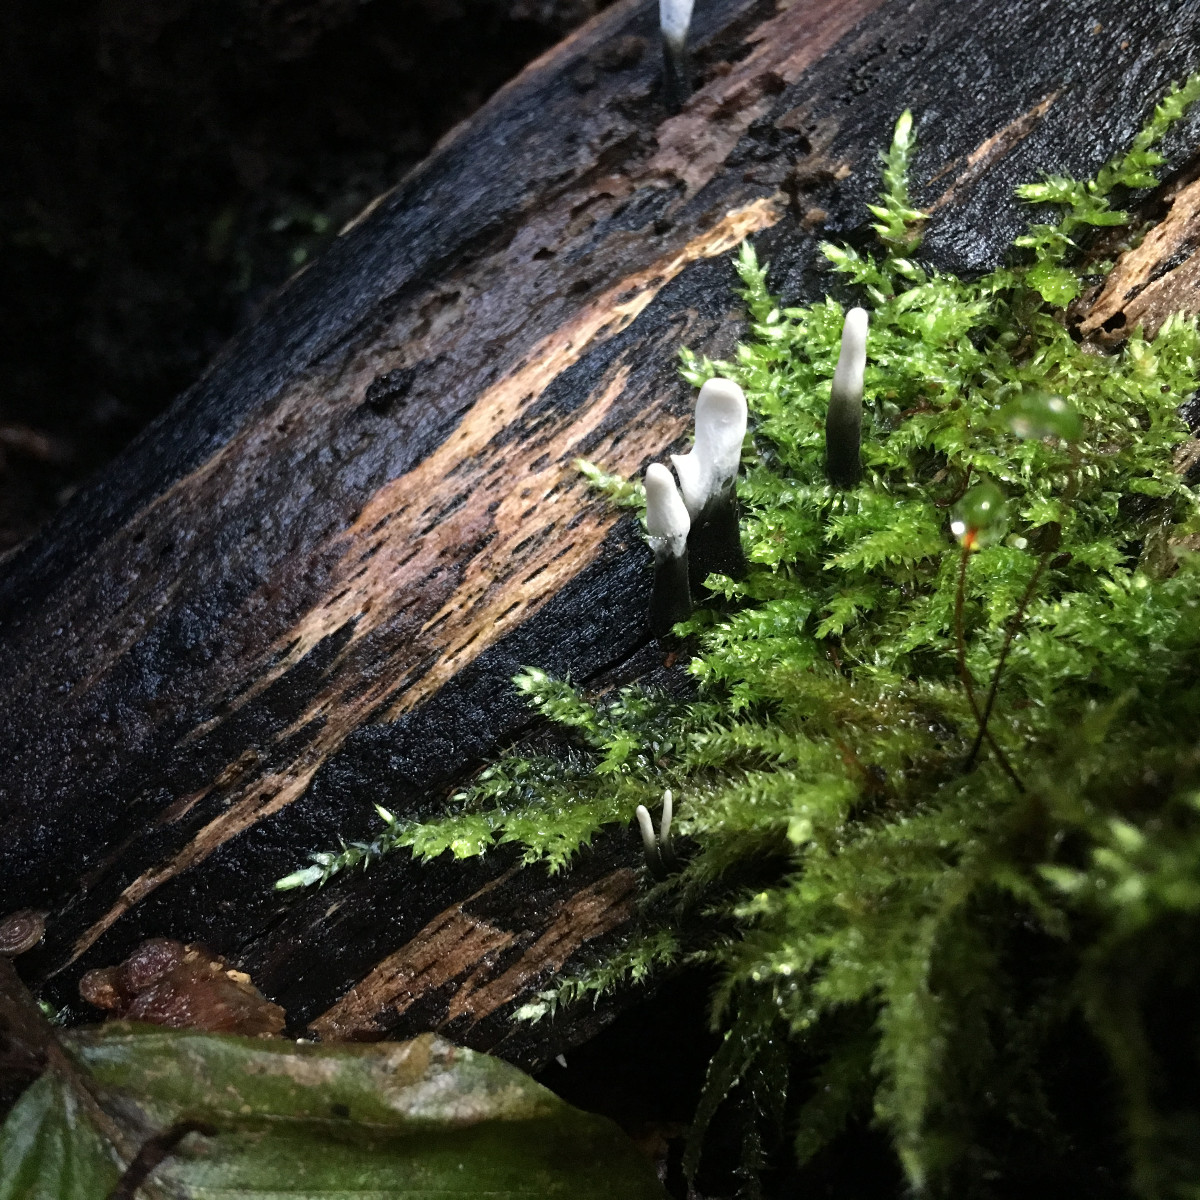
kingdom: Fungi
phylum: Ascomycota
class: Sordariomycetes
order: Xylariales
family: Xylariaceae
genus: Xylaria
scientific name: Xylaria hypoxylon
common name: grenet stødsvamp
